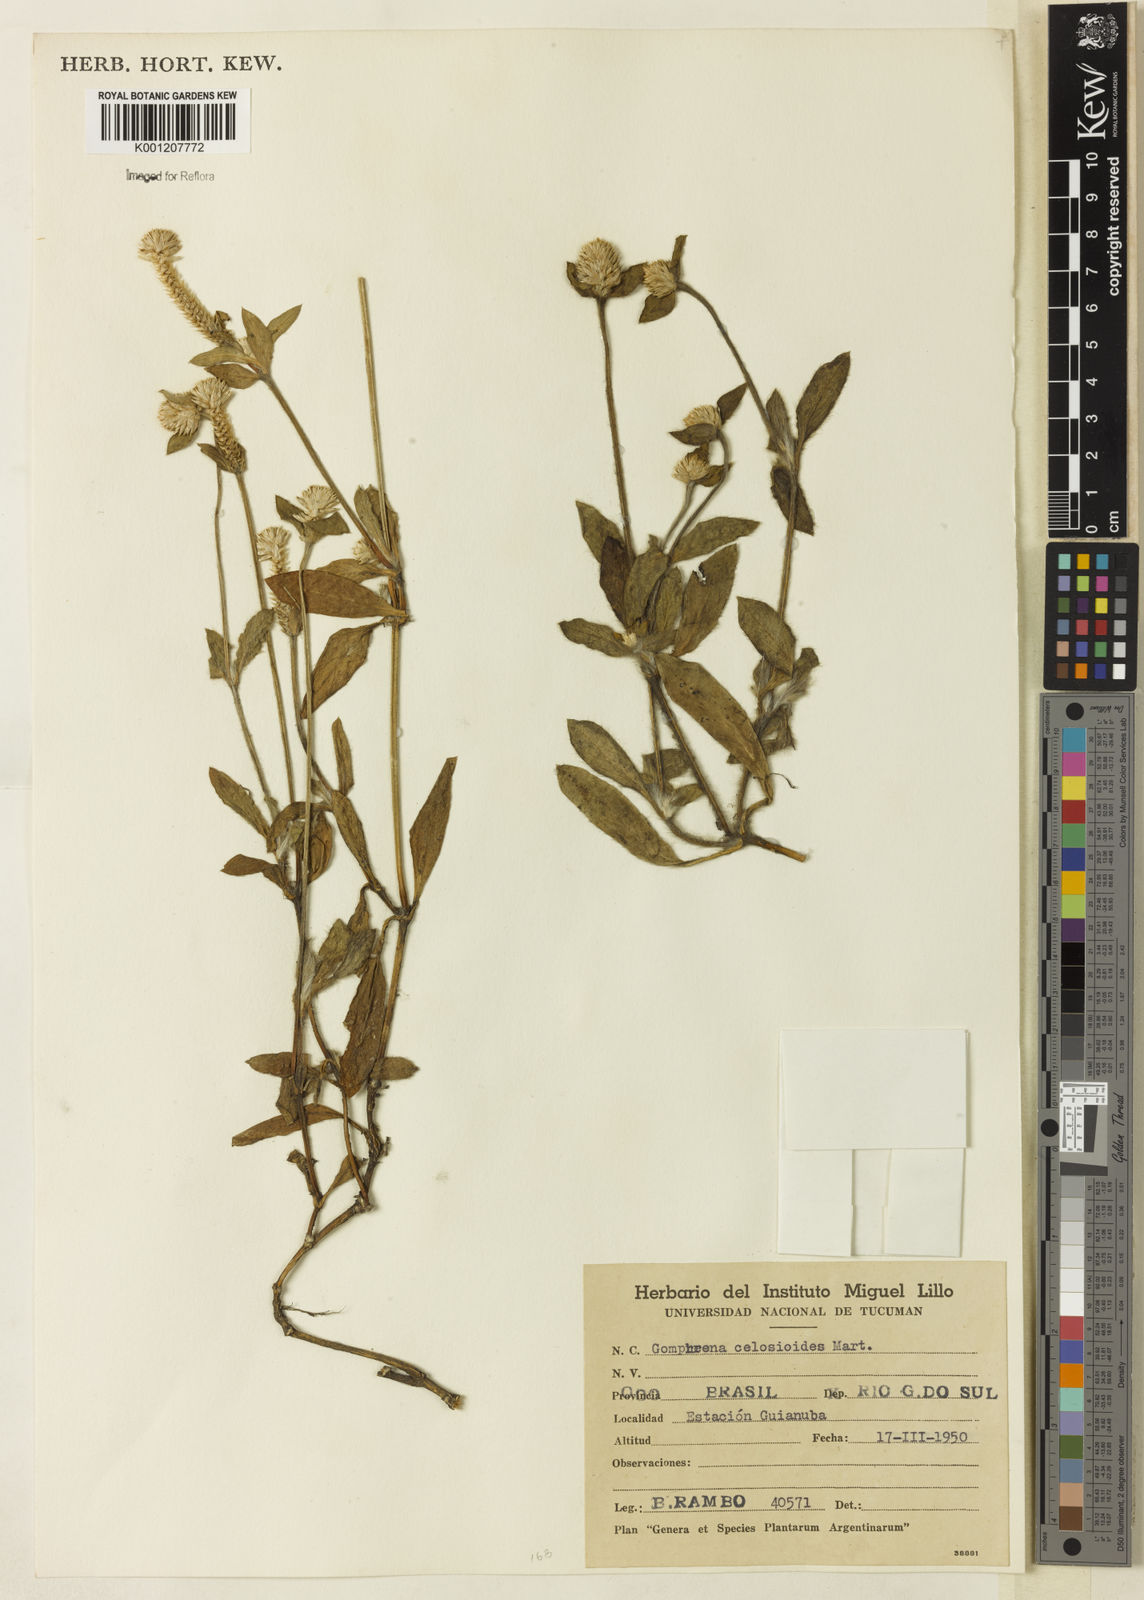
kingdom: Plantae
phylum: Tracheophyta
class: Magnoliopsida
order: Caryophyllales
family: Amaranthaceae
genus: Gomphrena
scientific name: Gomphrena celosioides
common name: Gomphrena-weed
